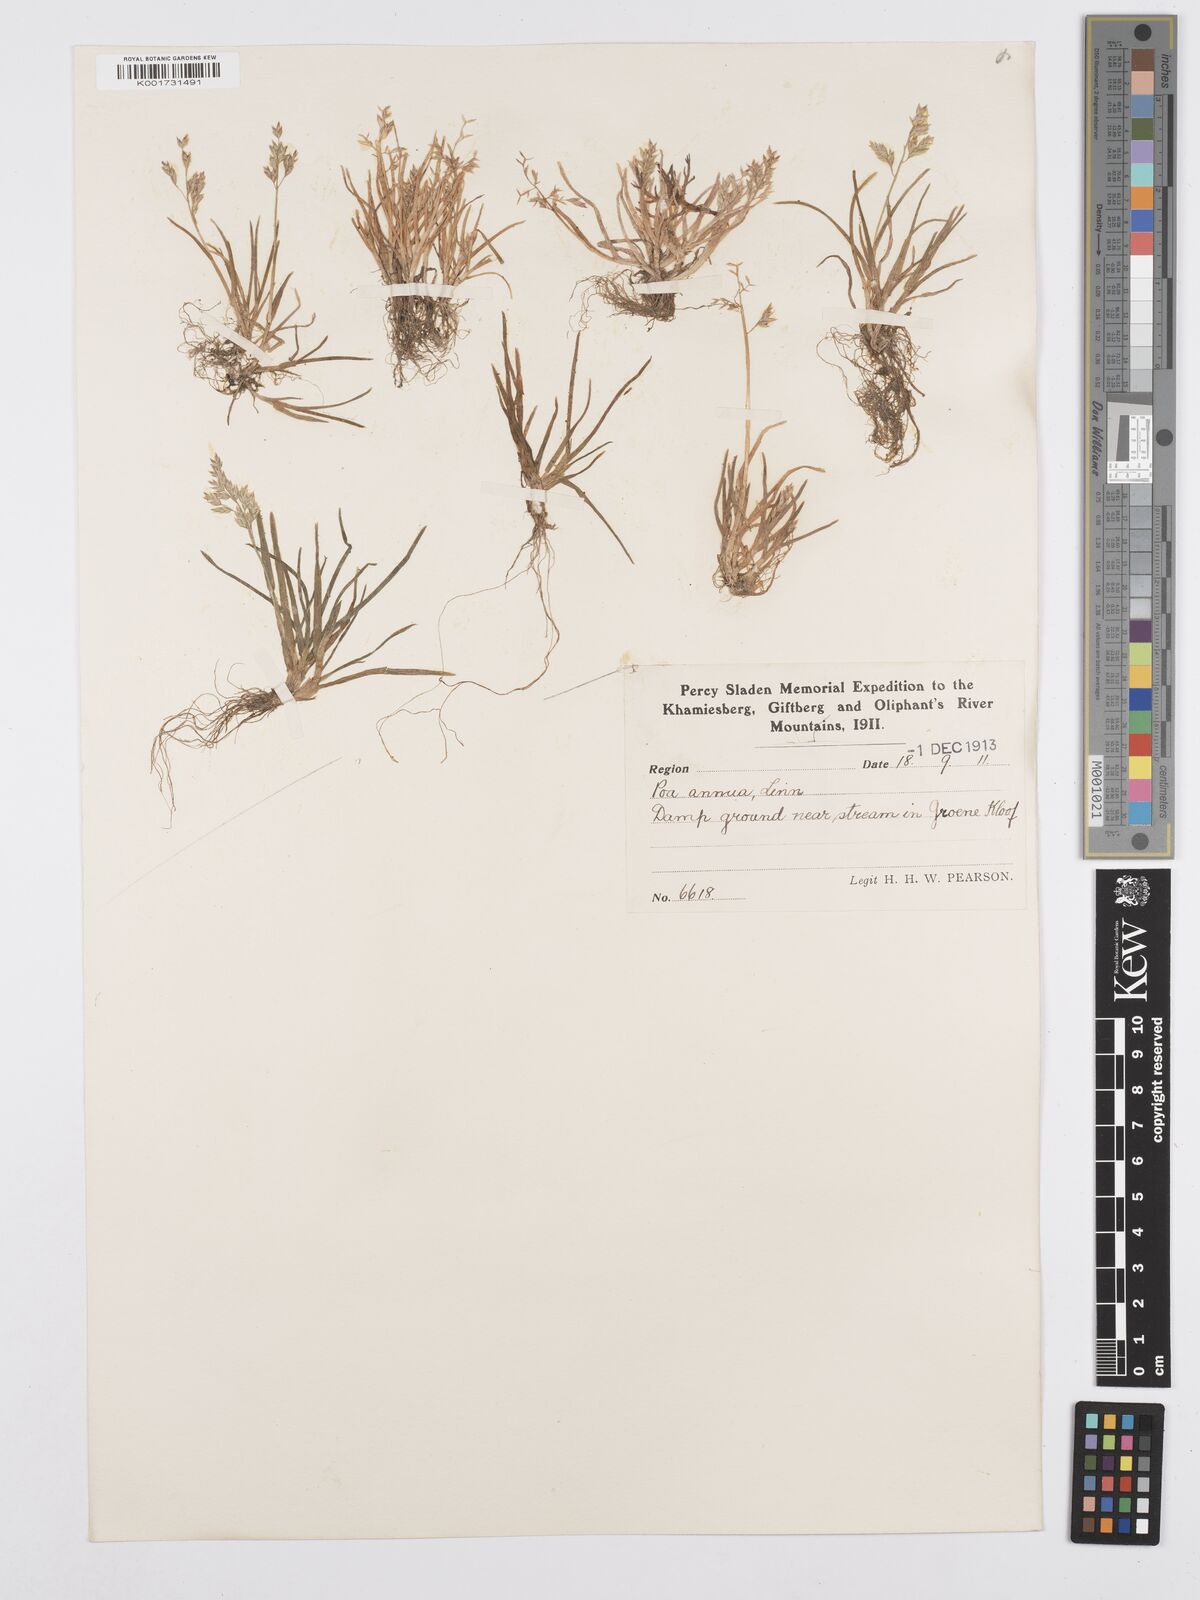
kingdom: Plantae
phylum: Tracheophyta
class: Liliopsida
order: Poales
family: Poaceae
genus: Poa
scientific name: Poa annua
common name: Annual bluegrass
